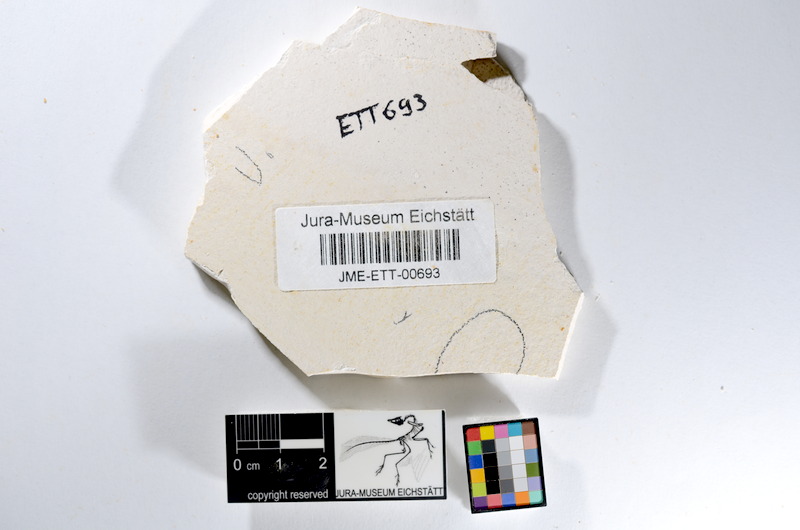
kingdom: Animalia
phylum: Chordata
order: Salmoniformes
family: Orthogonikleithridae
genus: Orthogonikleithrus
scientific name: Orthogonikleithrus hoelli
